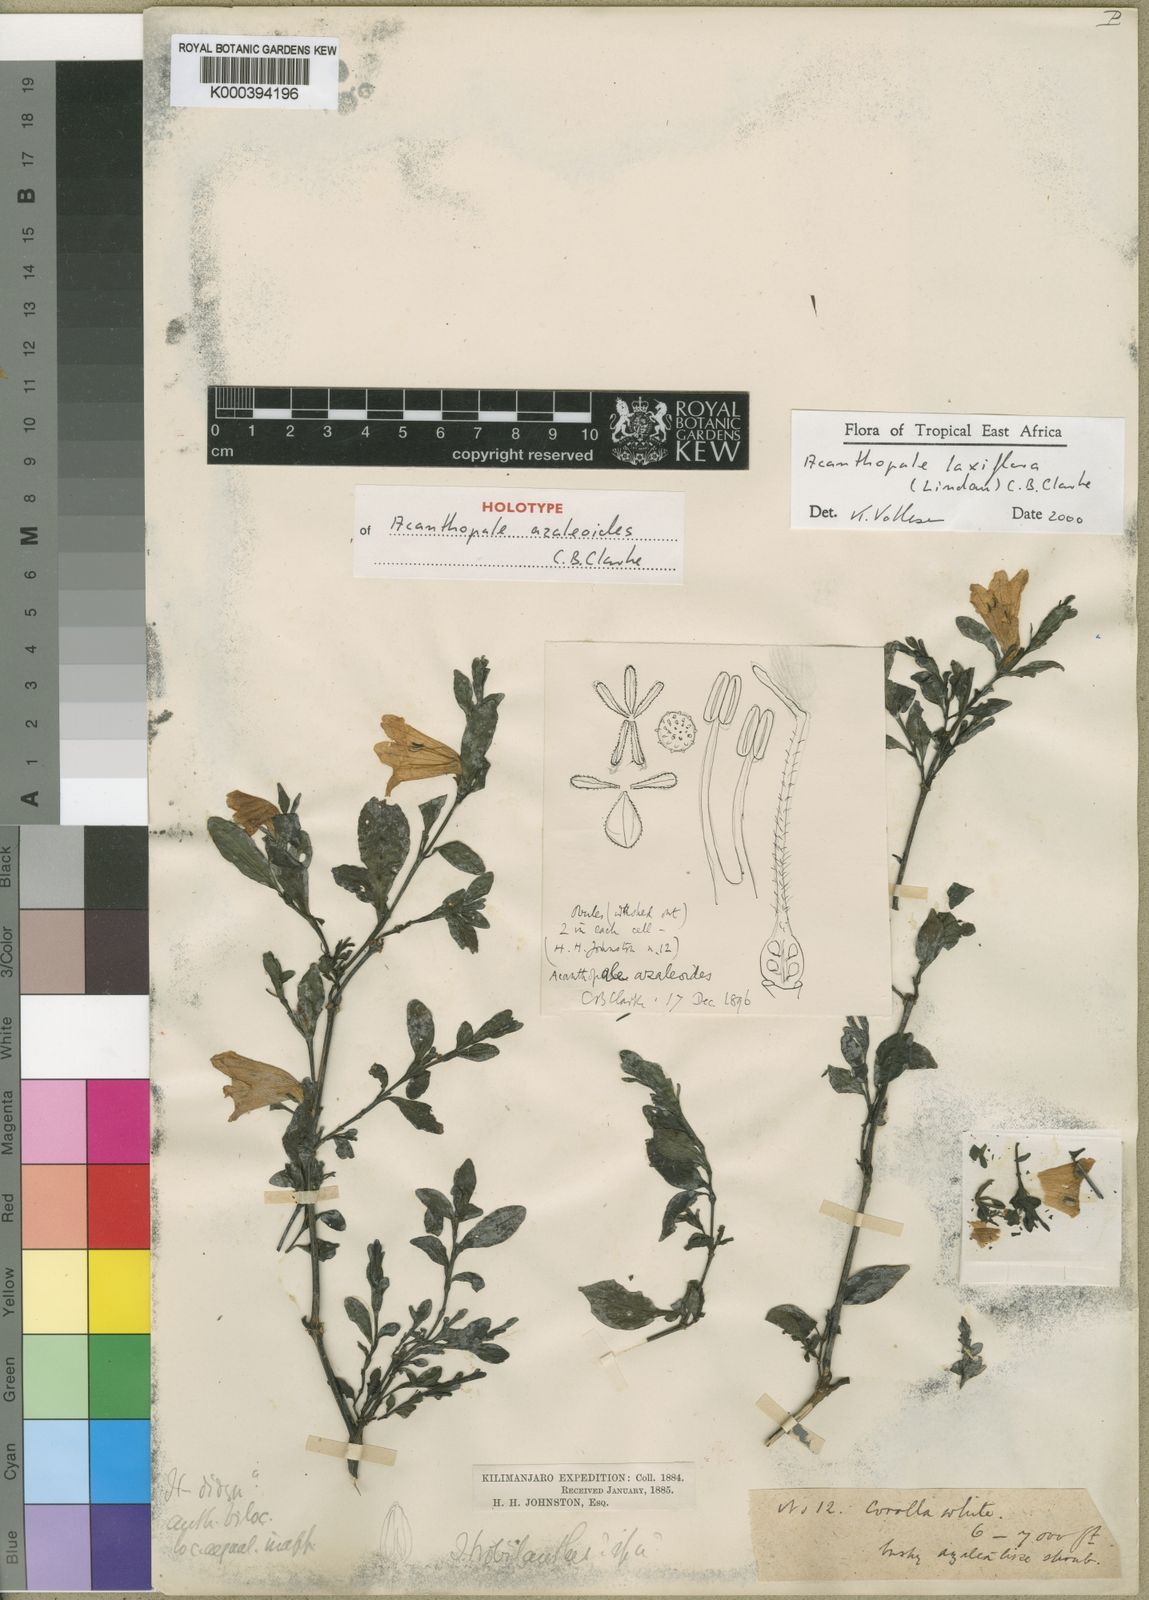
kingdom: Plantae
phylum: Tracheophyta
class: Magnoliopsida
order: Lamiales
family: Acanthaceae
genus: Acanthopale
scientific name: Acanthopale laxiflora
